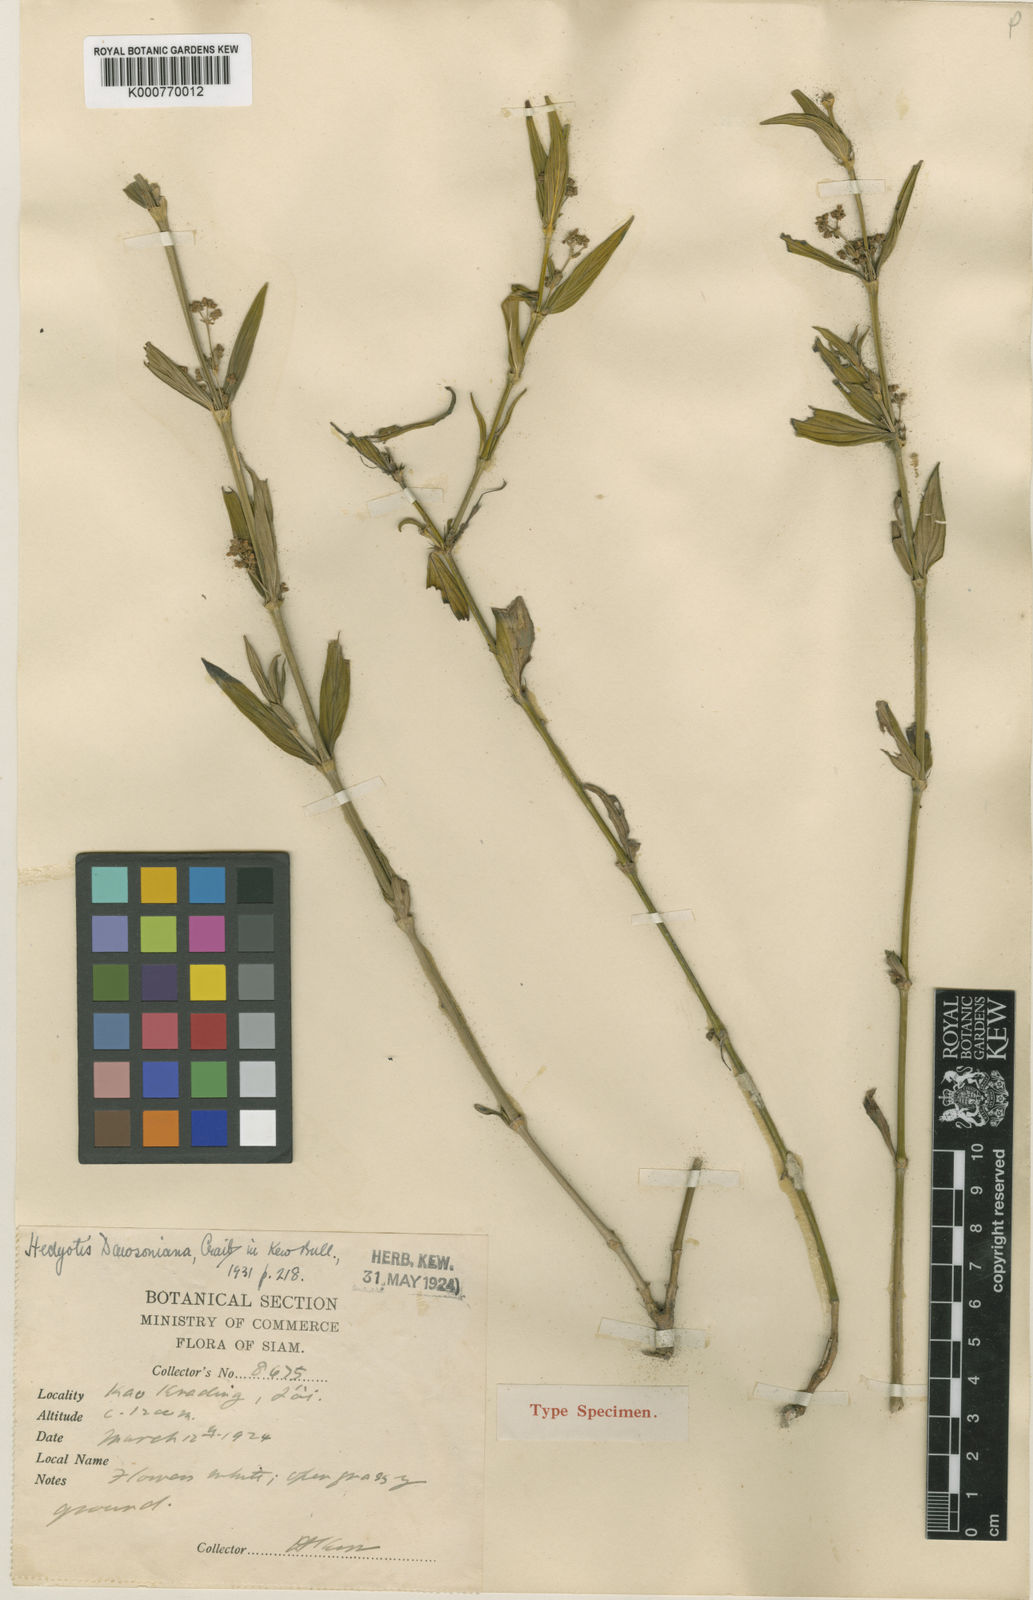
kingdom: Plantae
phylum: Tracheophyta
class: Magnoliopsida
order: Gentianales
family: Rubiaceae
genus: Exallage
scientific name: Exallage barbata
